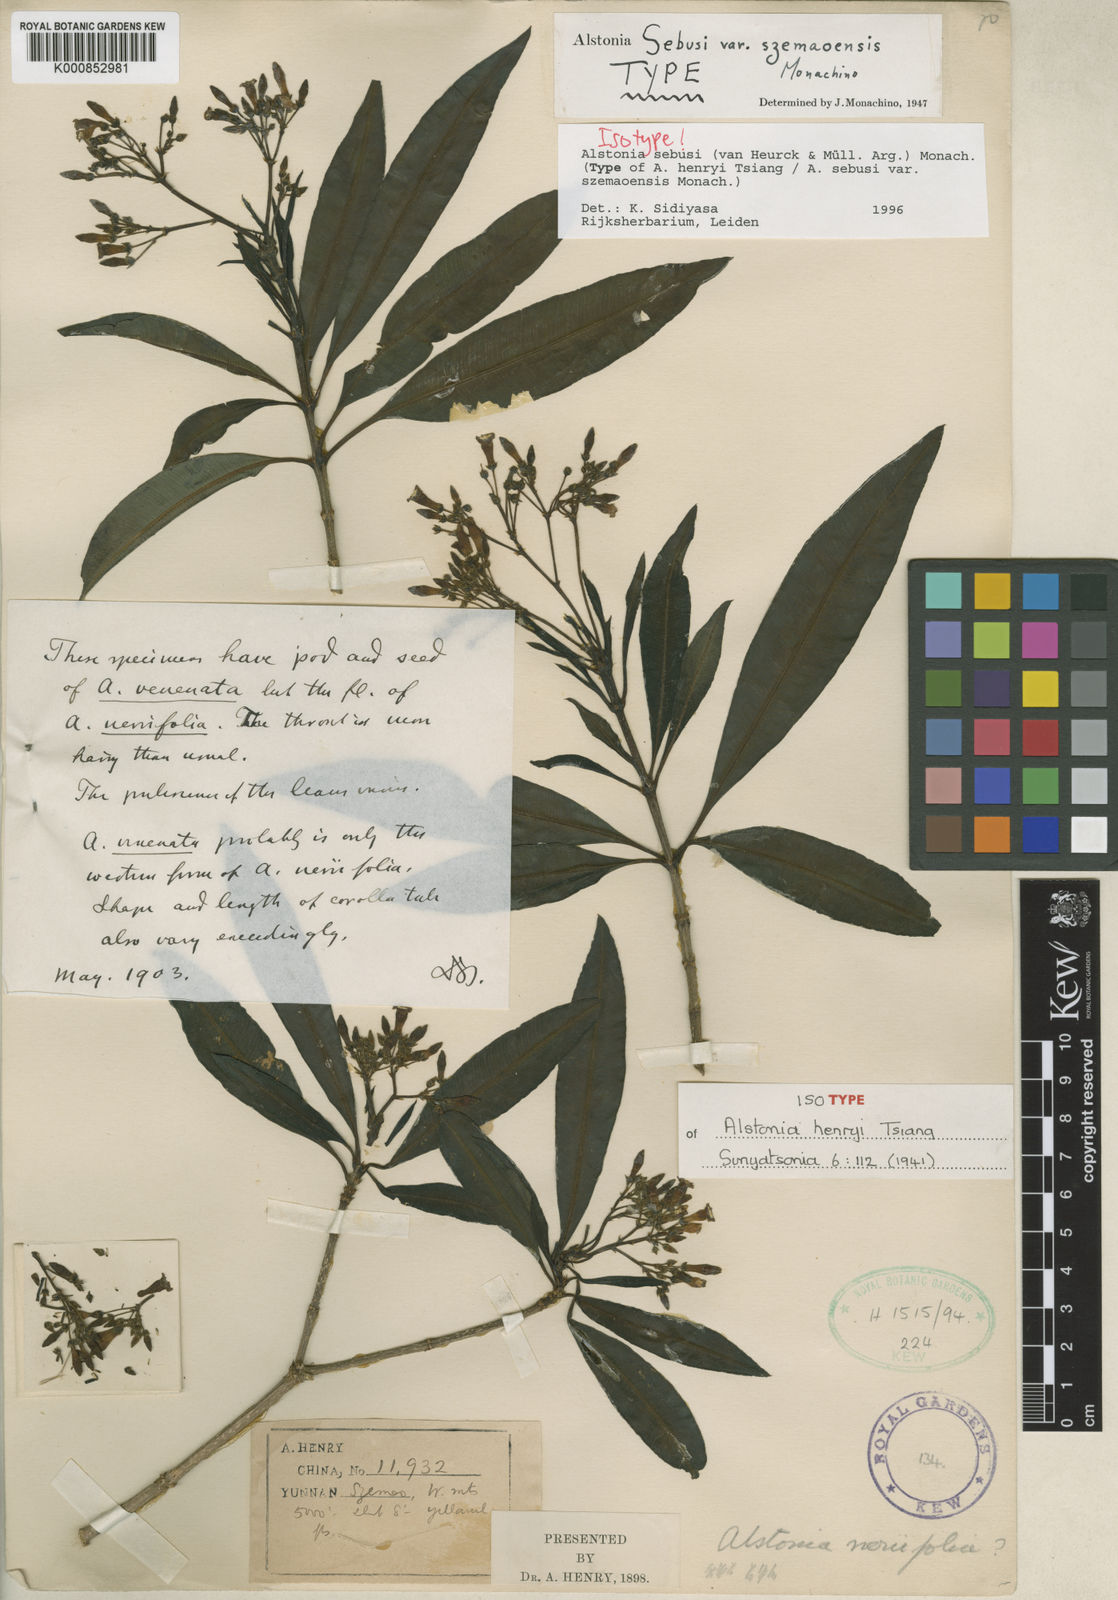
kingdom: Plantae
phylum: Tracheophyta
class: Magnoliopsida
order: Gentianales
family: Apocynaceae
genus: Alstonia
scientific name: Alstonia
